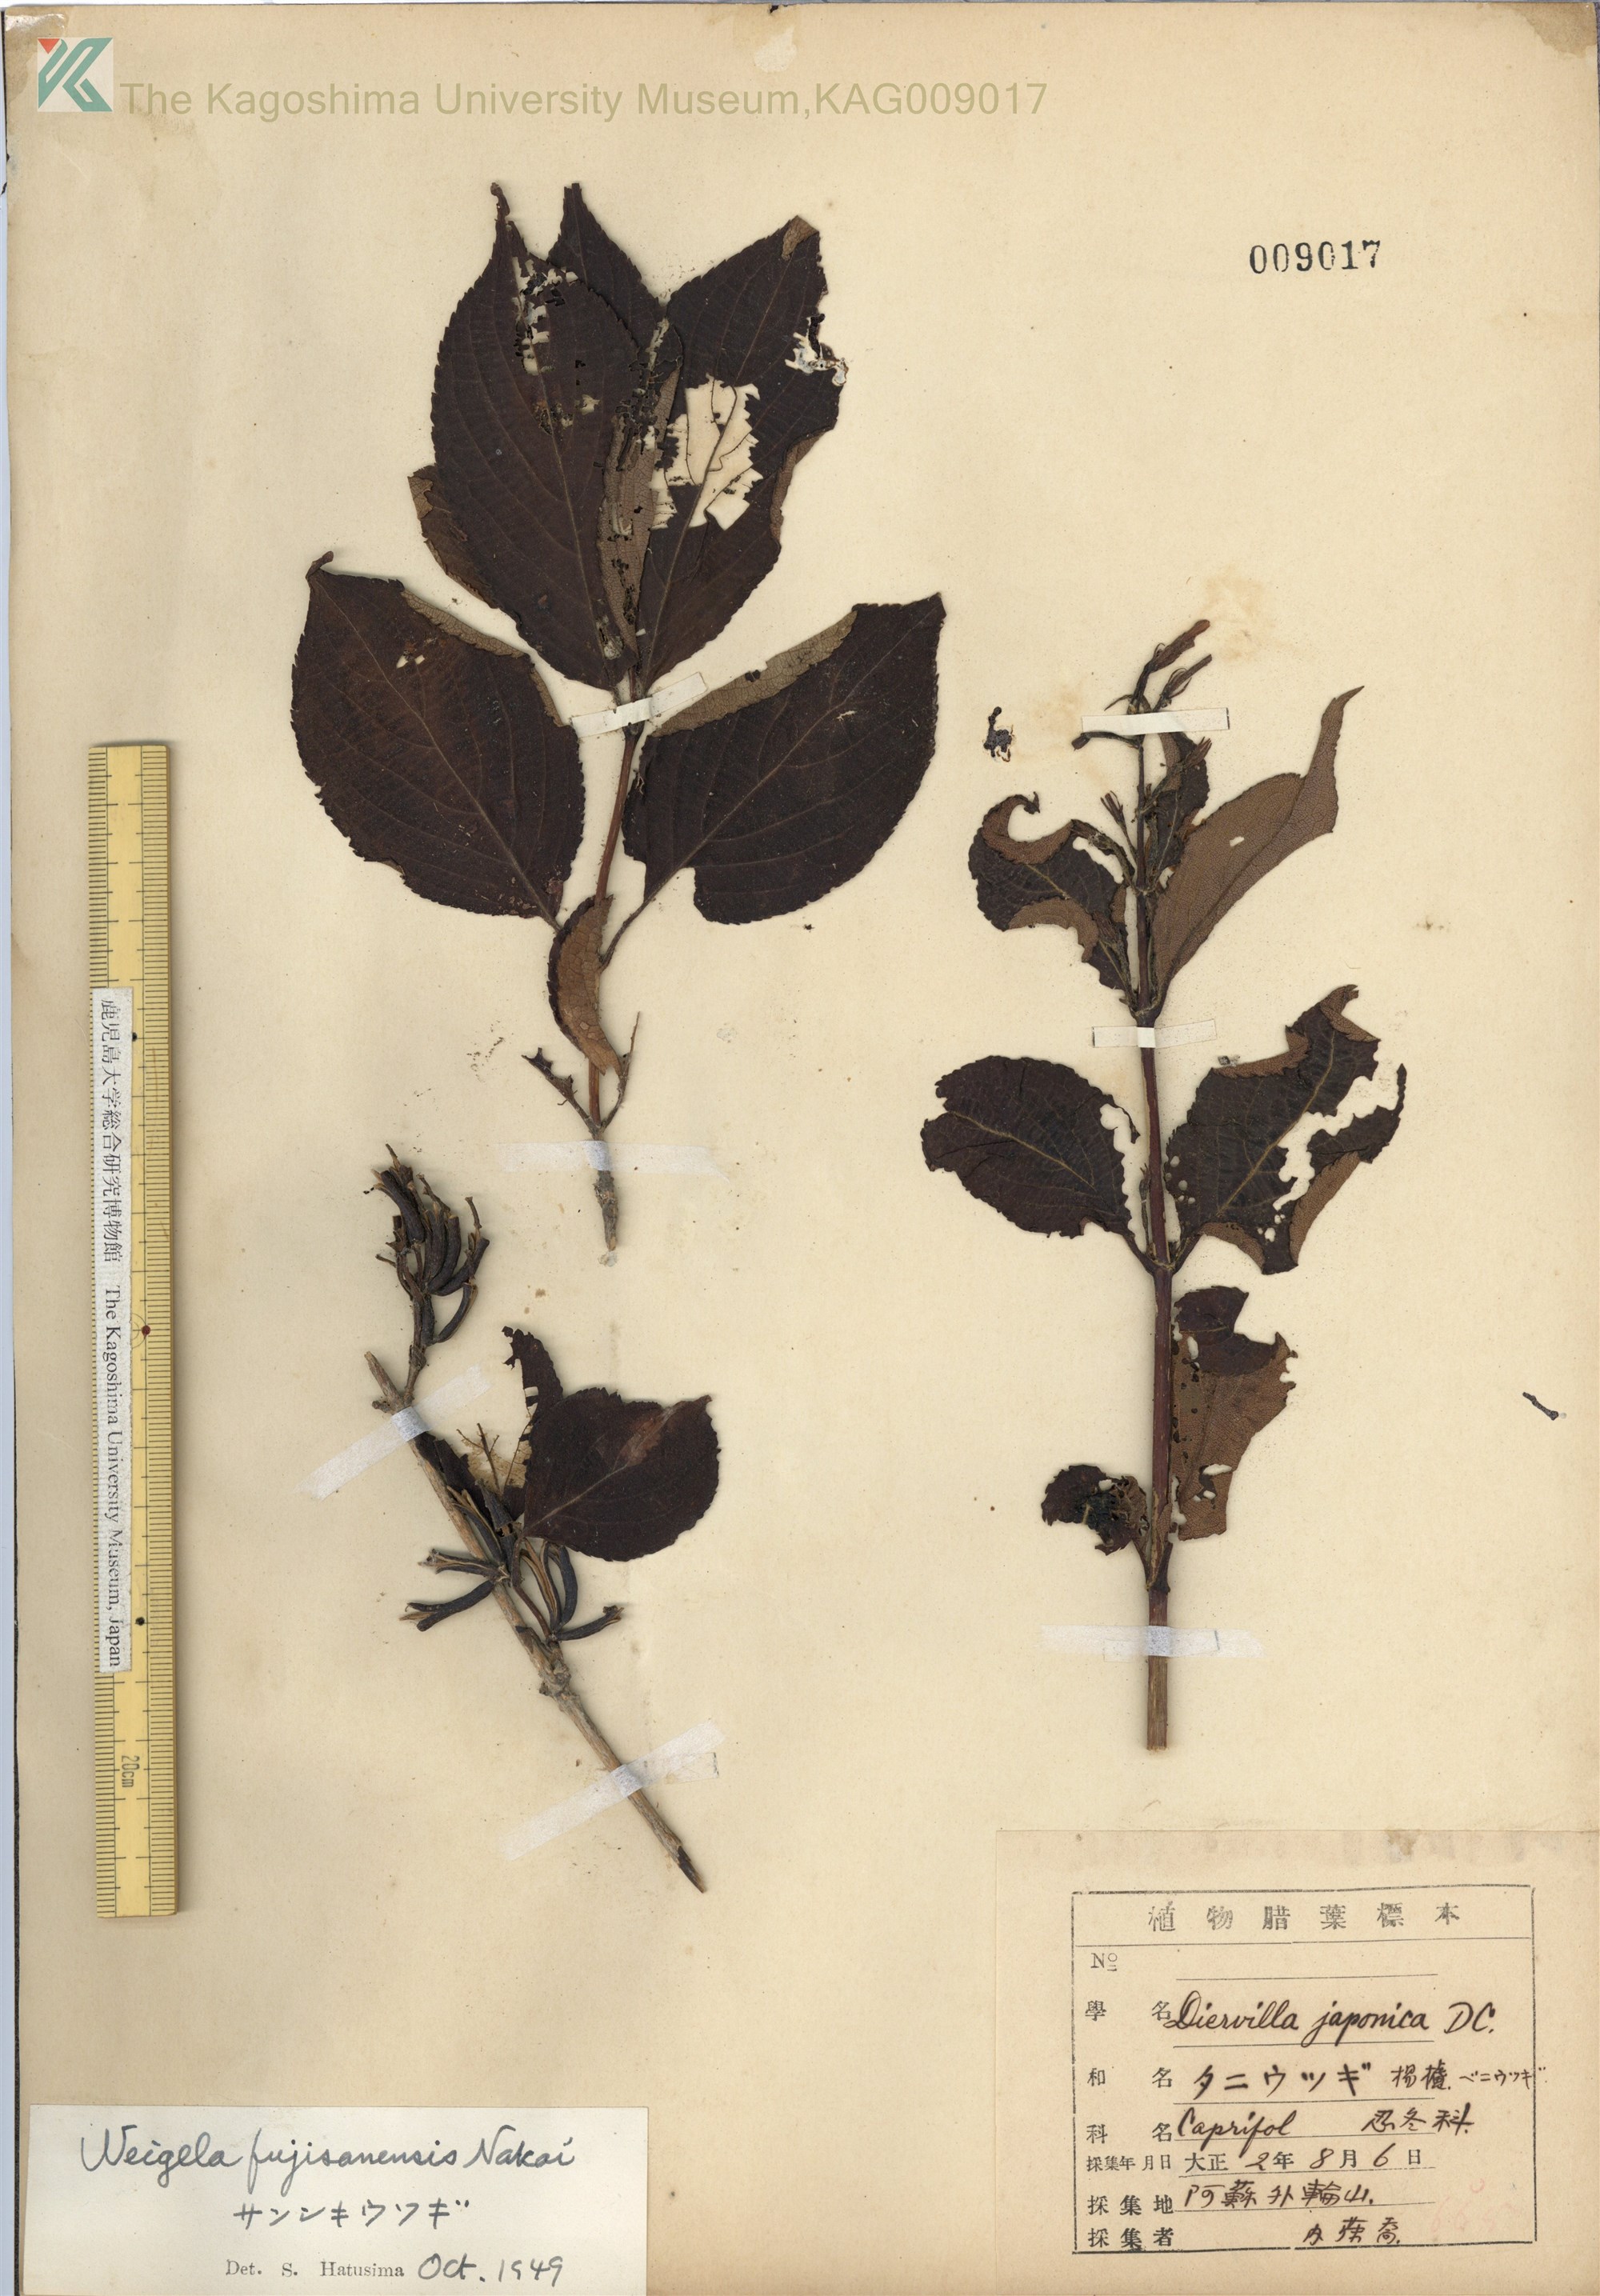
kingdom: Plantae
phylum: Tracheophyta
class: Magnoliopsida
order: Dipsacales
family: Caprifoliaceae
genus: Weigela
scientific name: Weigela decora
